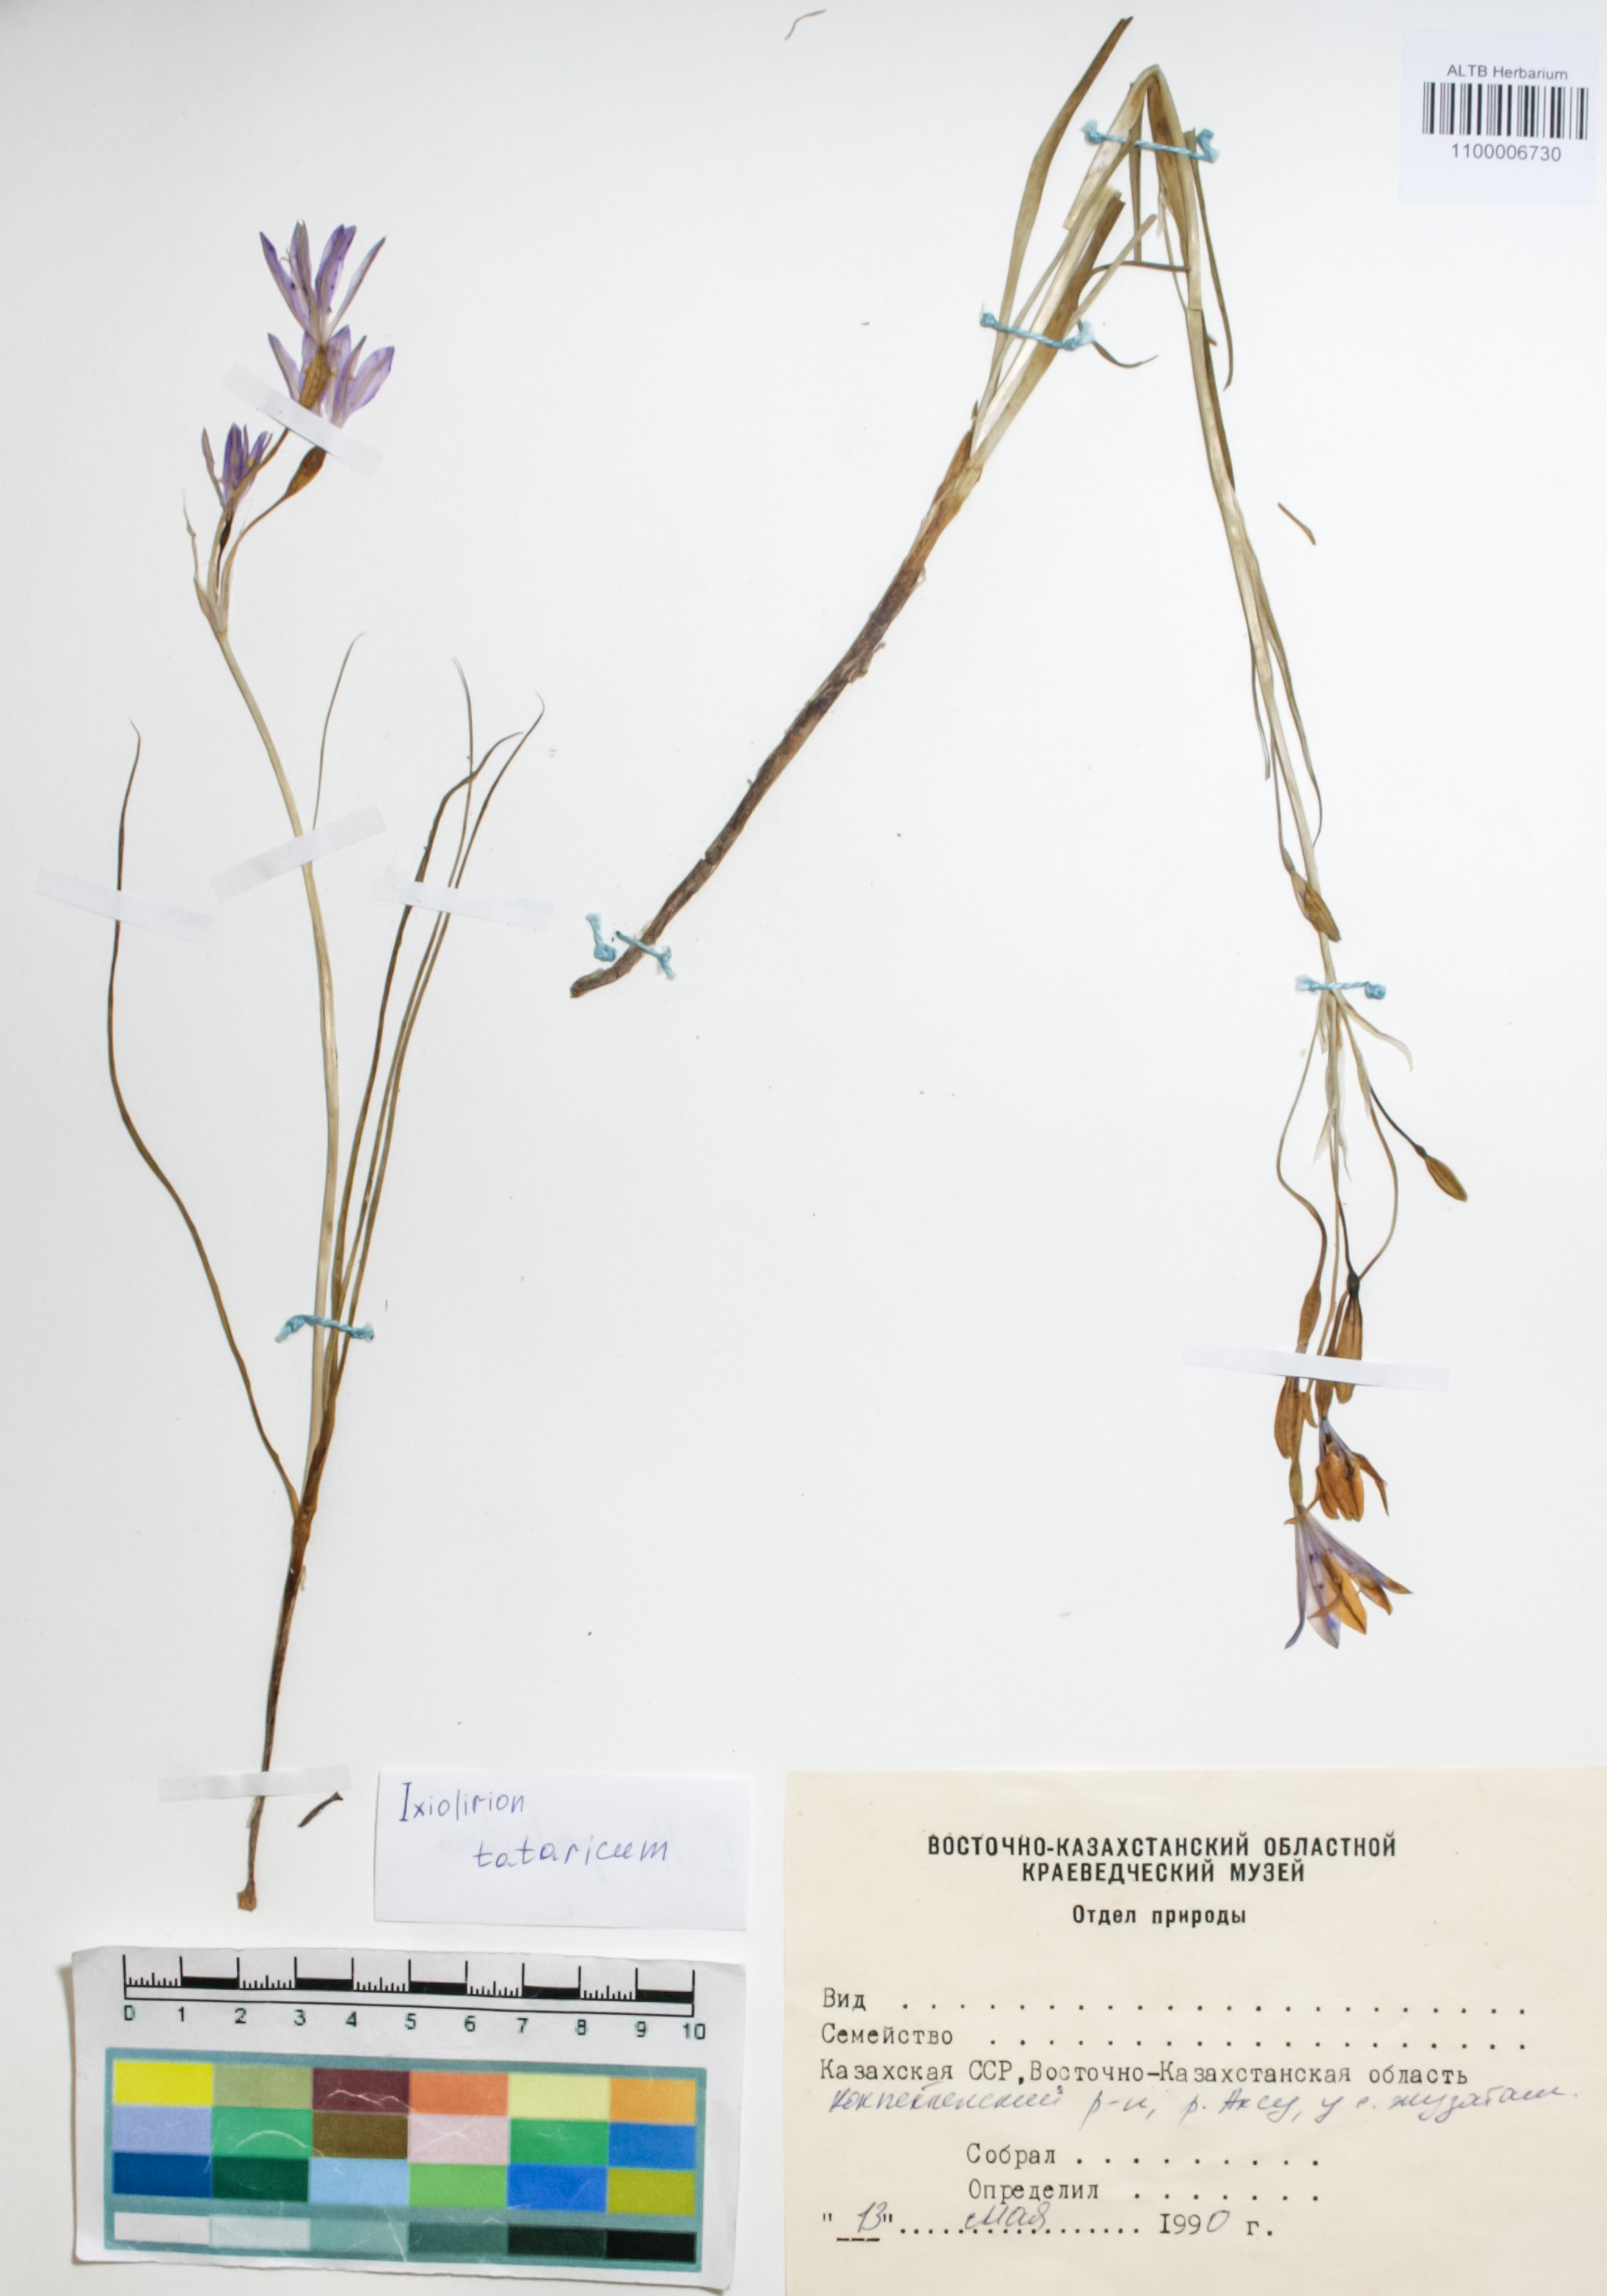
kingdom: Plantae
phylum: Tracheophyta
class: Liliopsida
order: Asparagales
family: Ixioliriaceae
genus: Ixiolirion
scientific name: Ixiolirion tataricum
